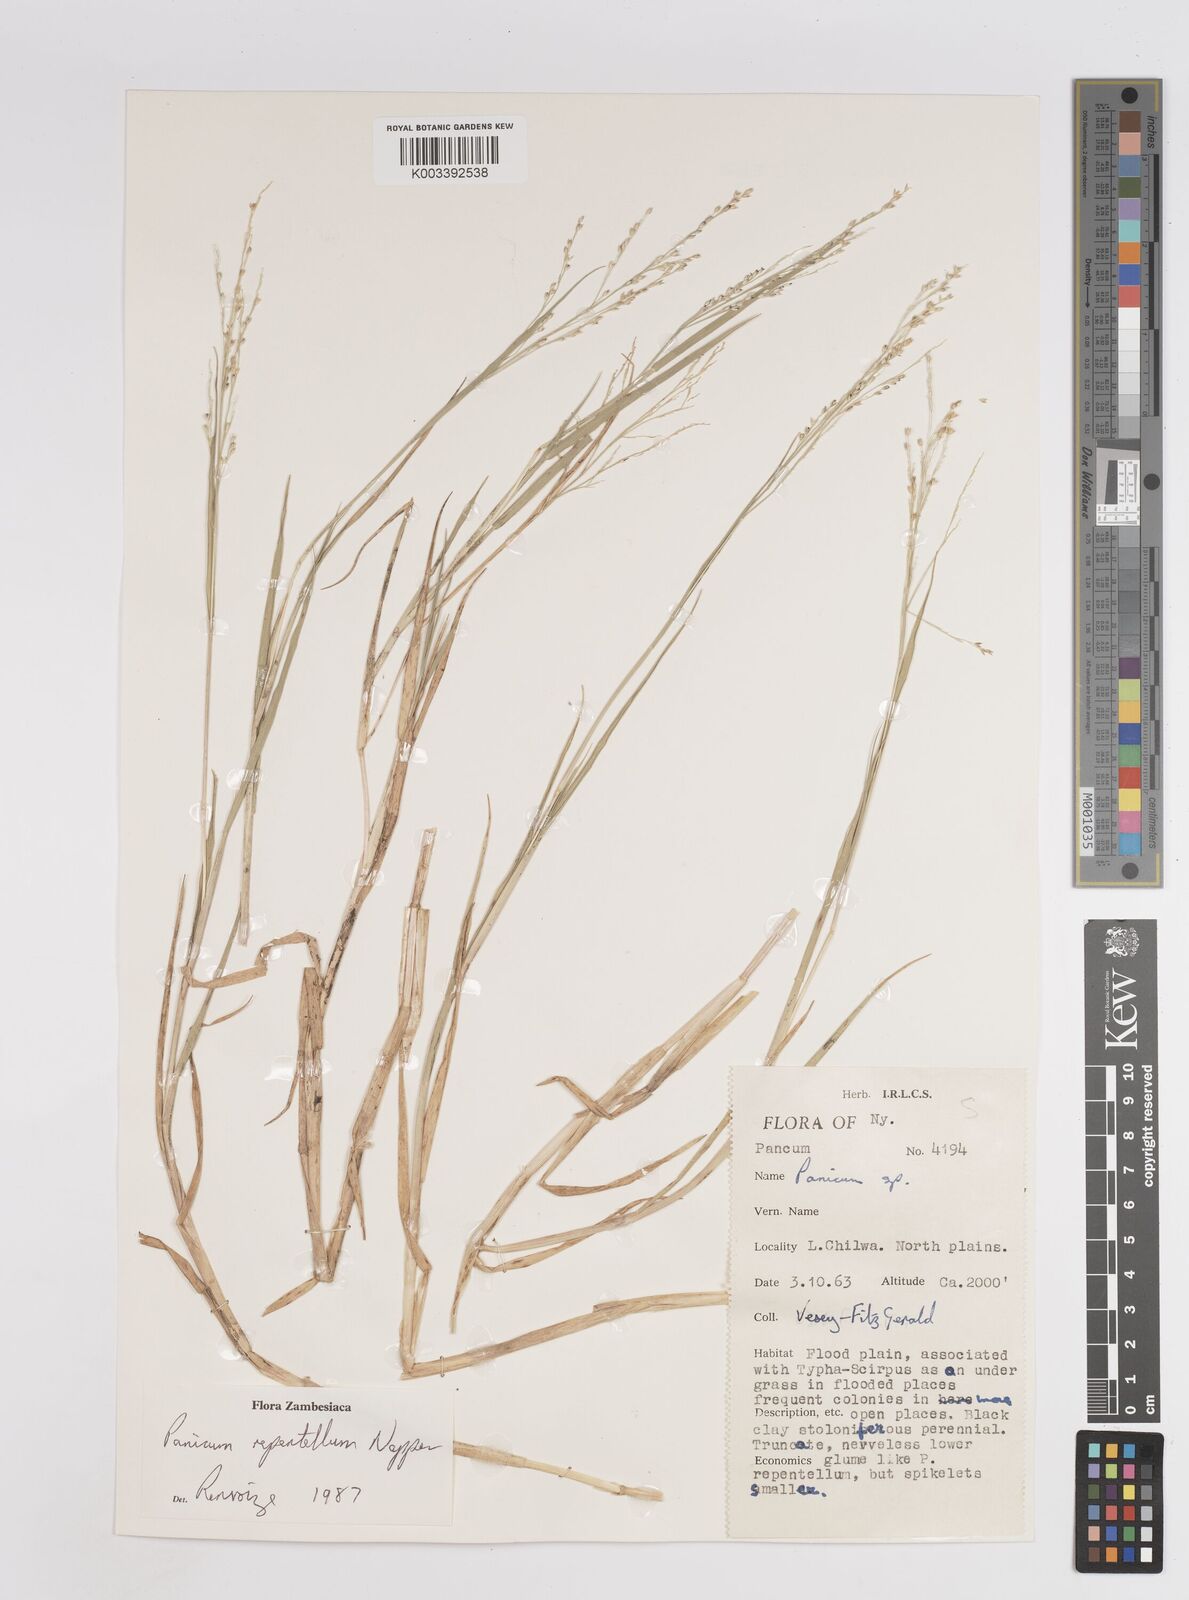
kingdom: Plantae
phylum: Tracheophyta
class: Liliopsida
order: Poales
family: Poaceae
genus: Panicum
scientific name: Panicum hygrocharis
